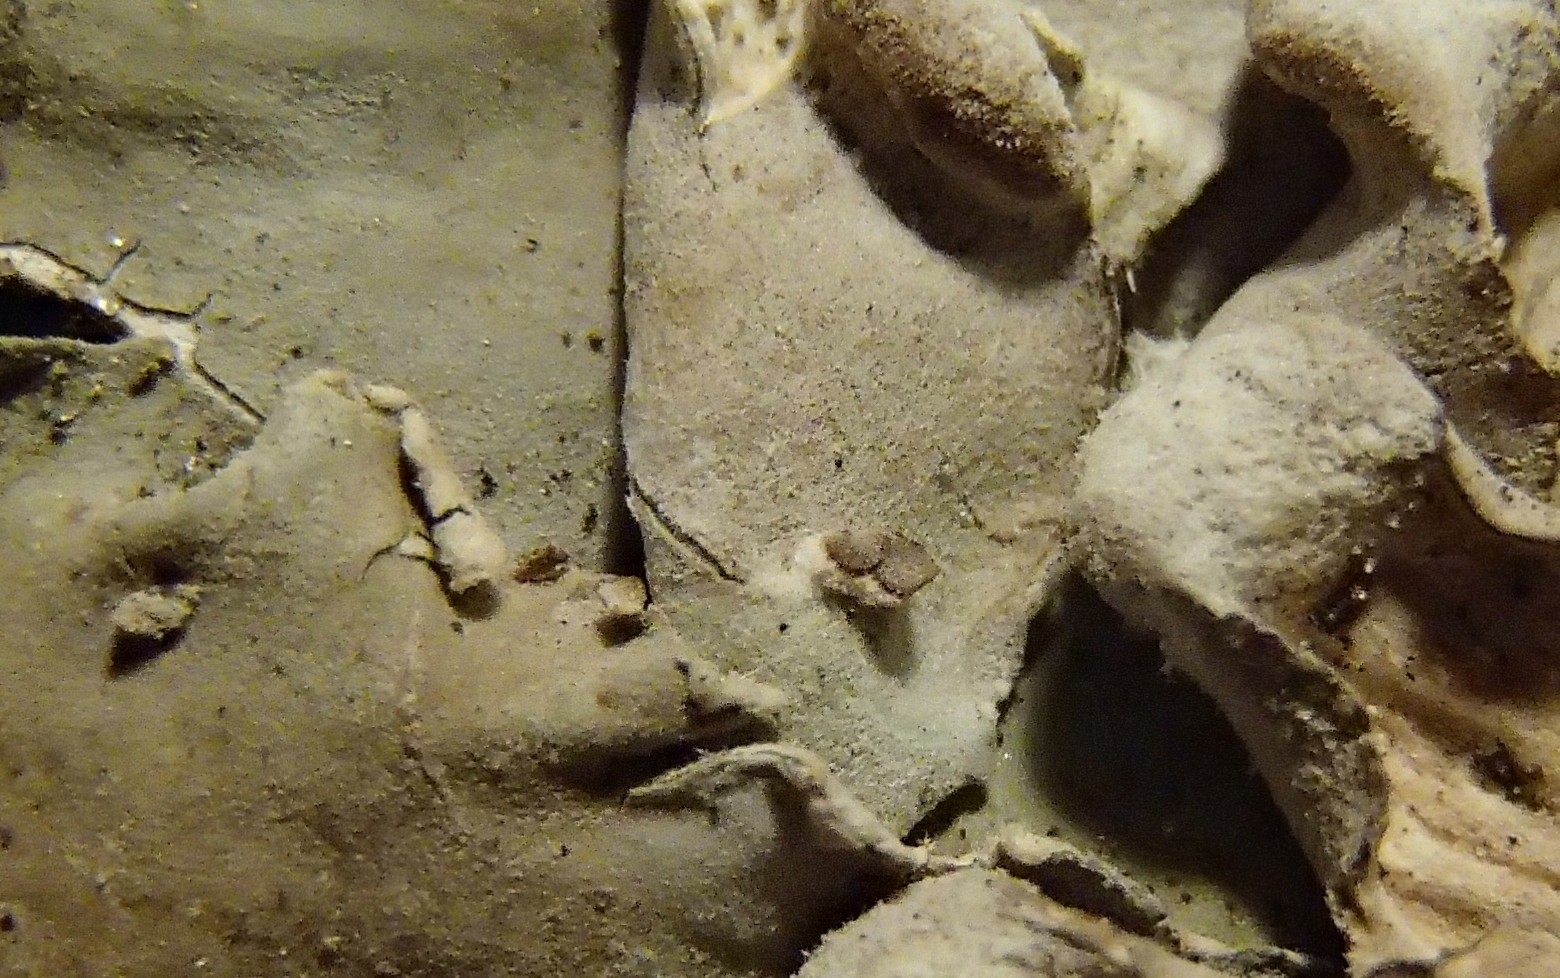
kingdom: Fungi
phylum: Ascomycota
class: Lecanoromycetes
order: Peltigerales
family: Peltigeraceae
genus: Peltigera
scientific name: Peltigera membranacea
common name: tynd skjoldlav
